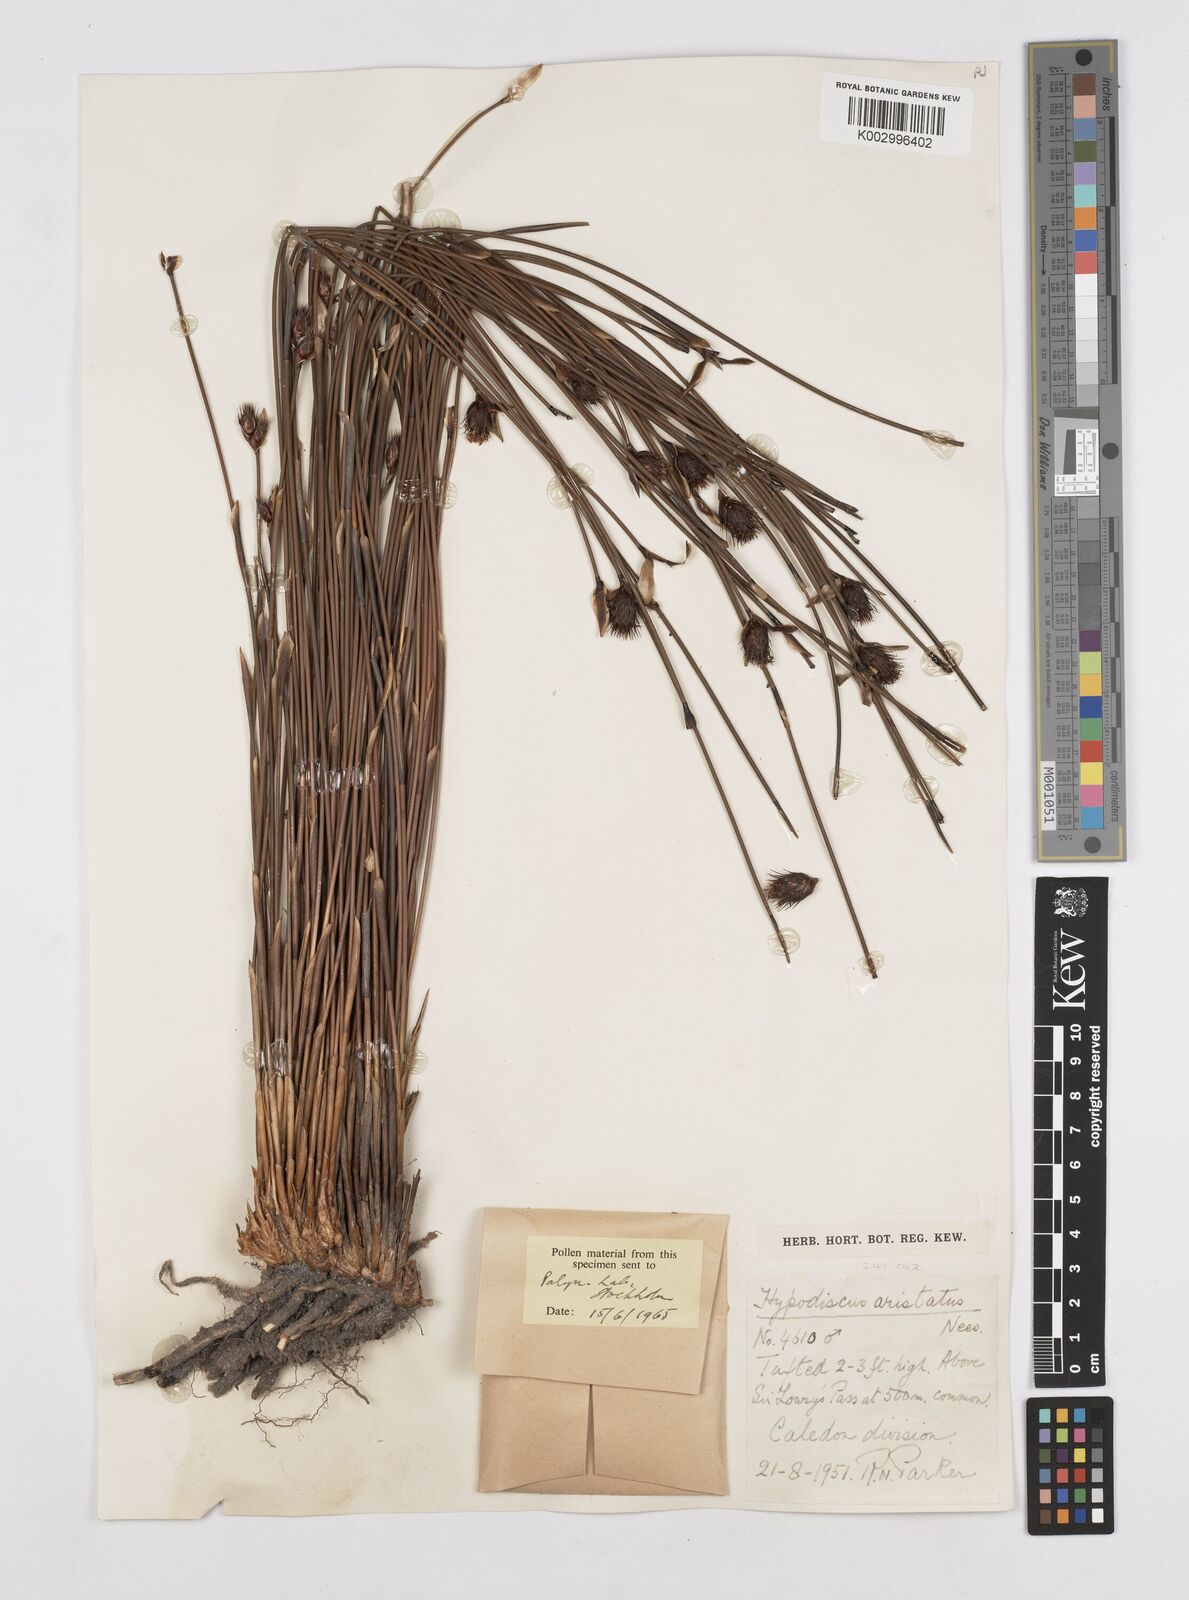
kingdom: Plantae
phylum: Tracheophyta
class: Liliopsida
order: Poales
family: Restionaceae
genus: Hypodiscus
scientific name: Hypodiscus aristatus
